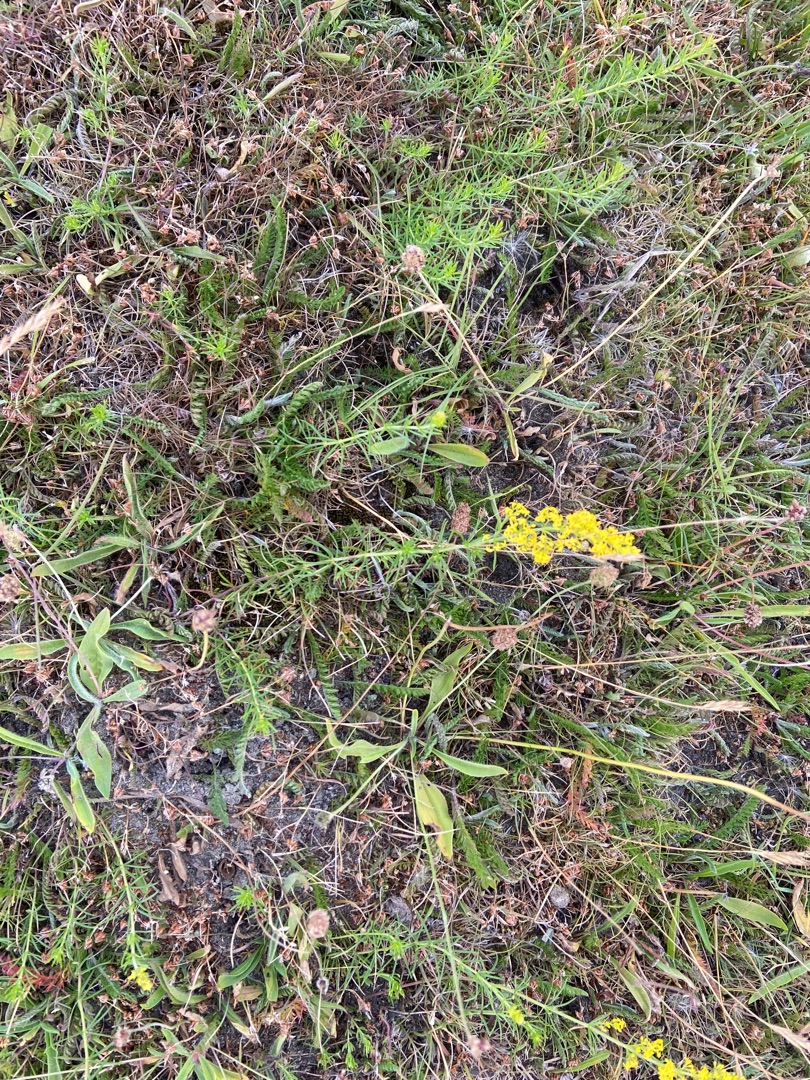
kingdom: Plantae
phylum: Tracheophyta
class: Magnoliopsida
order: Gentianales
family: Rubiaceae
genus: Galium
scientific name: Galium verum
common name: Gul snerre
